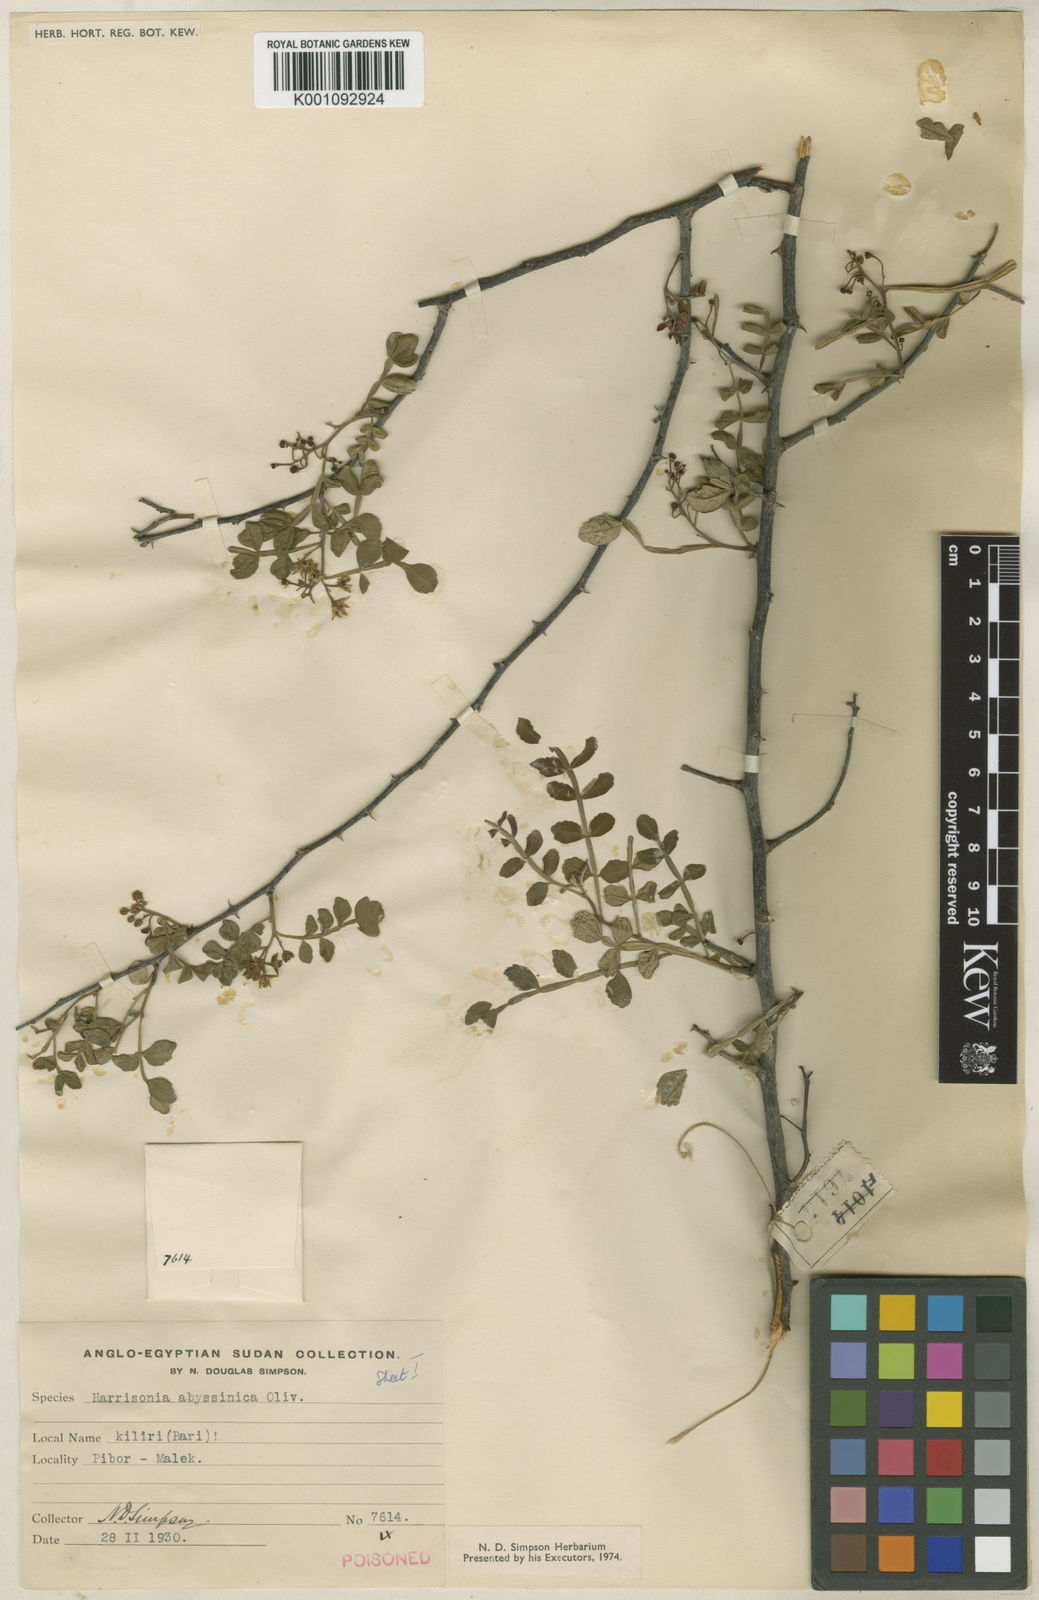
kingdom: Plantae
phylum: Tracheophyta
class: Magnoliopsida
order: Sapindales
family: Rutaceae
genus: Harrisonia
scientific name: Harrisonia abyssinica
